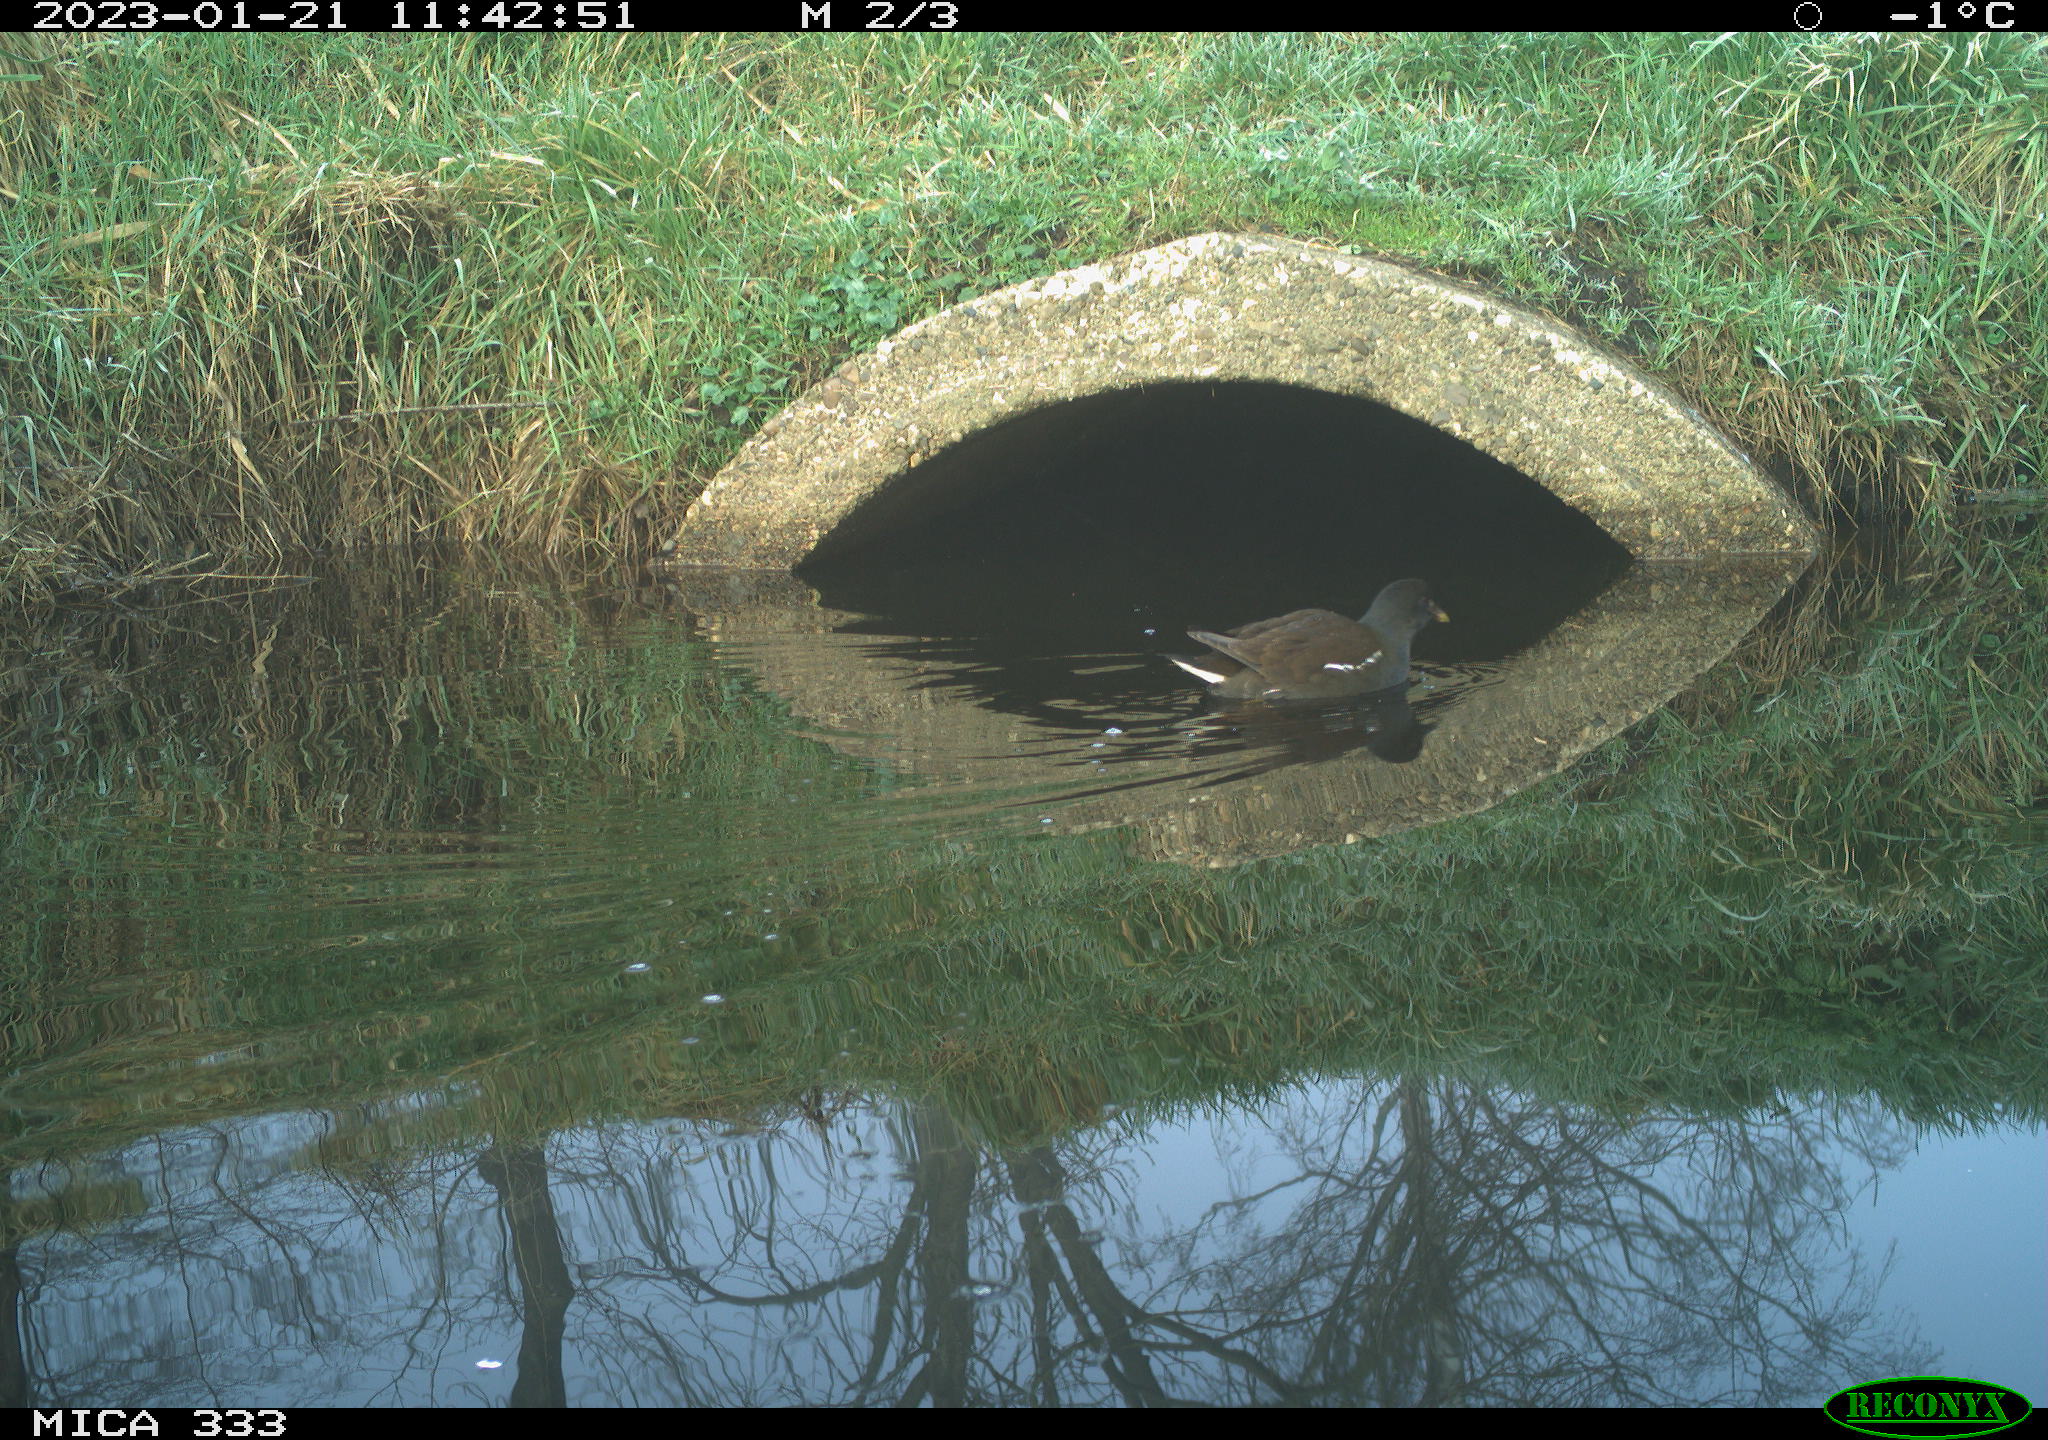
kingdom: Animalia
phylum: Chordata
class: Aves
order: Gruiformes
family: Rallidae
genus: Gallinula
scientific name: Gallinula chloropus
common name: Common moorhen
